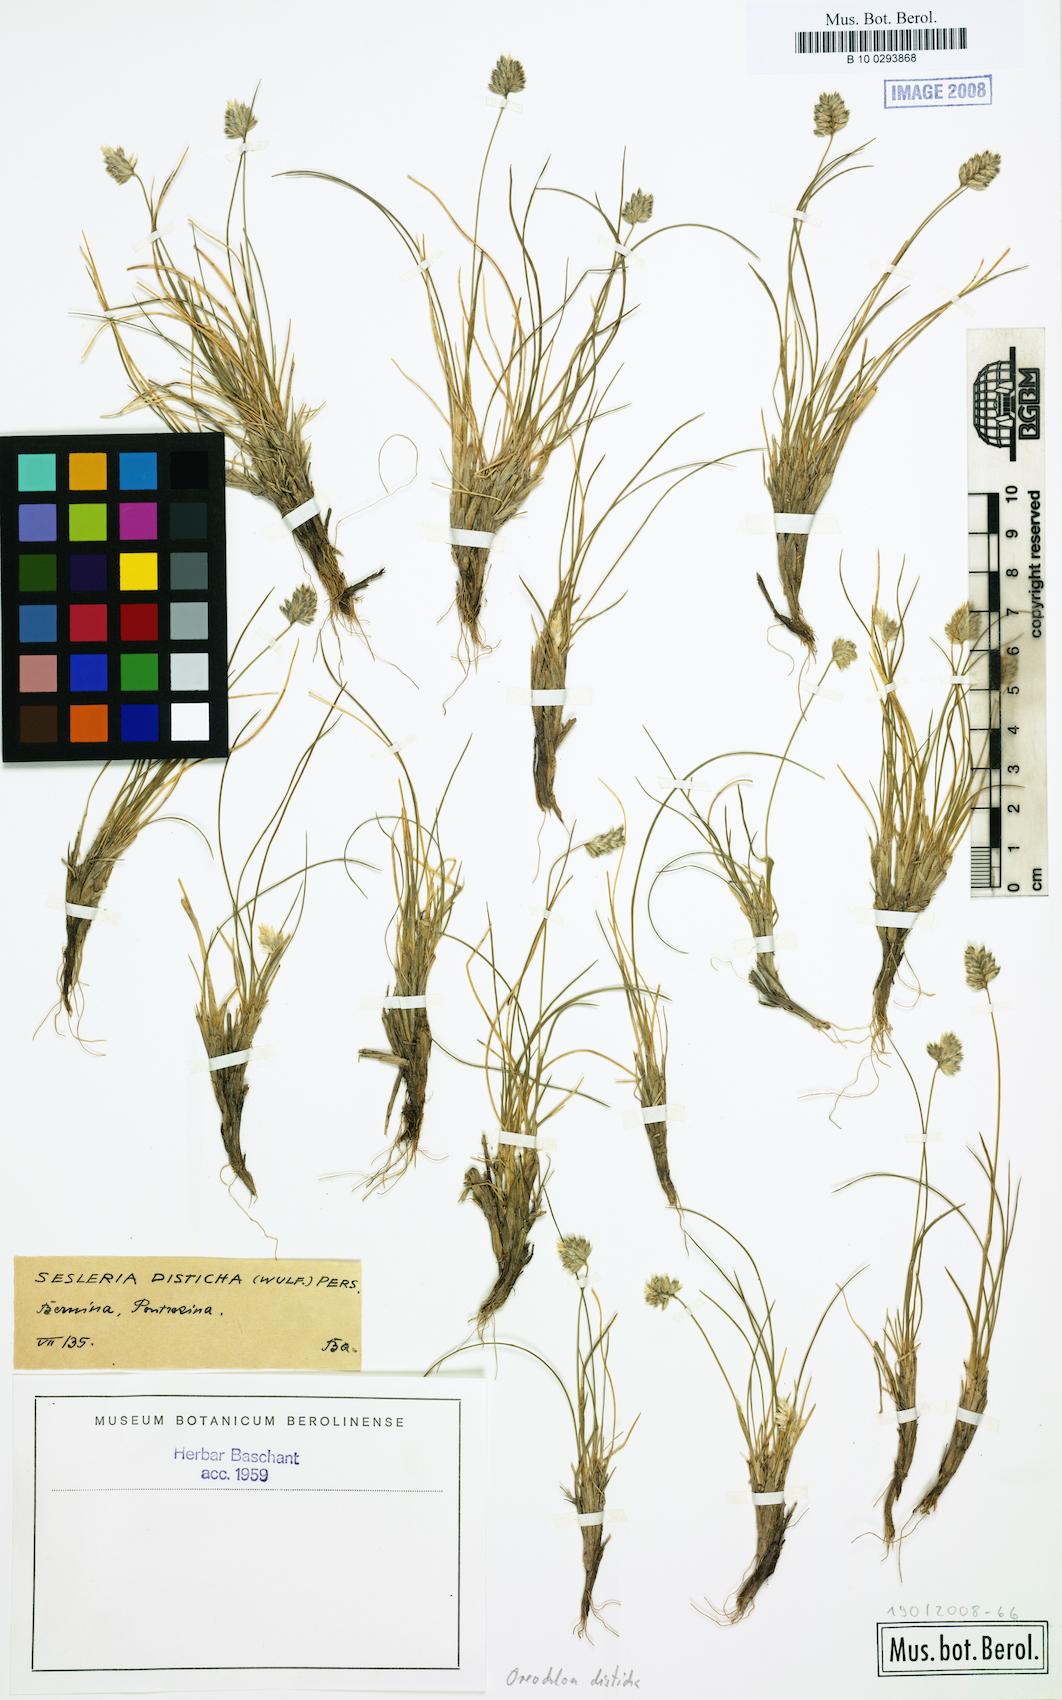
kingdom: Plantae
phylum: Tracheophyta
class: Liliopsida
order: Poales
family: Poaceae
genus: Oreochloa
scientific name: Oreochloa disticha
